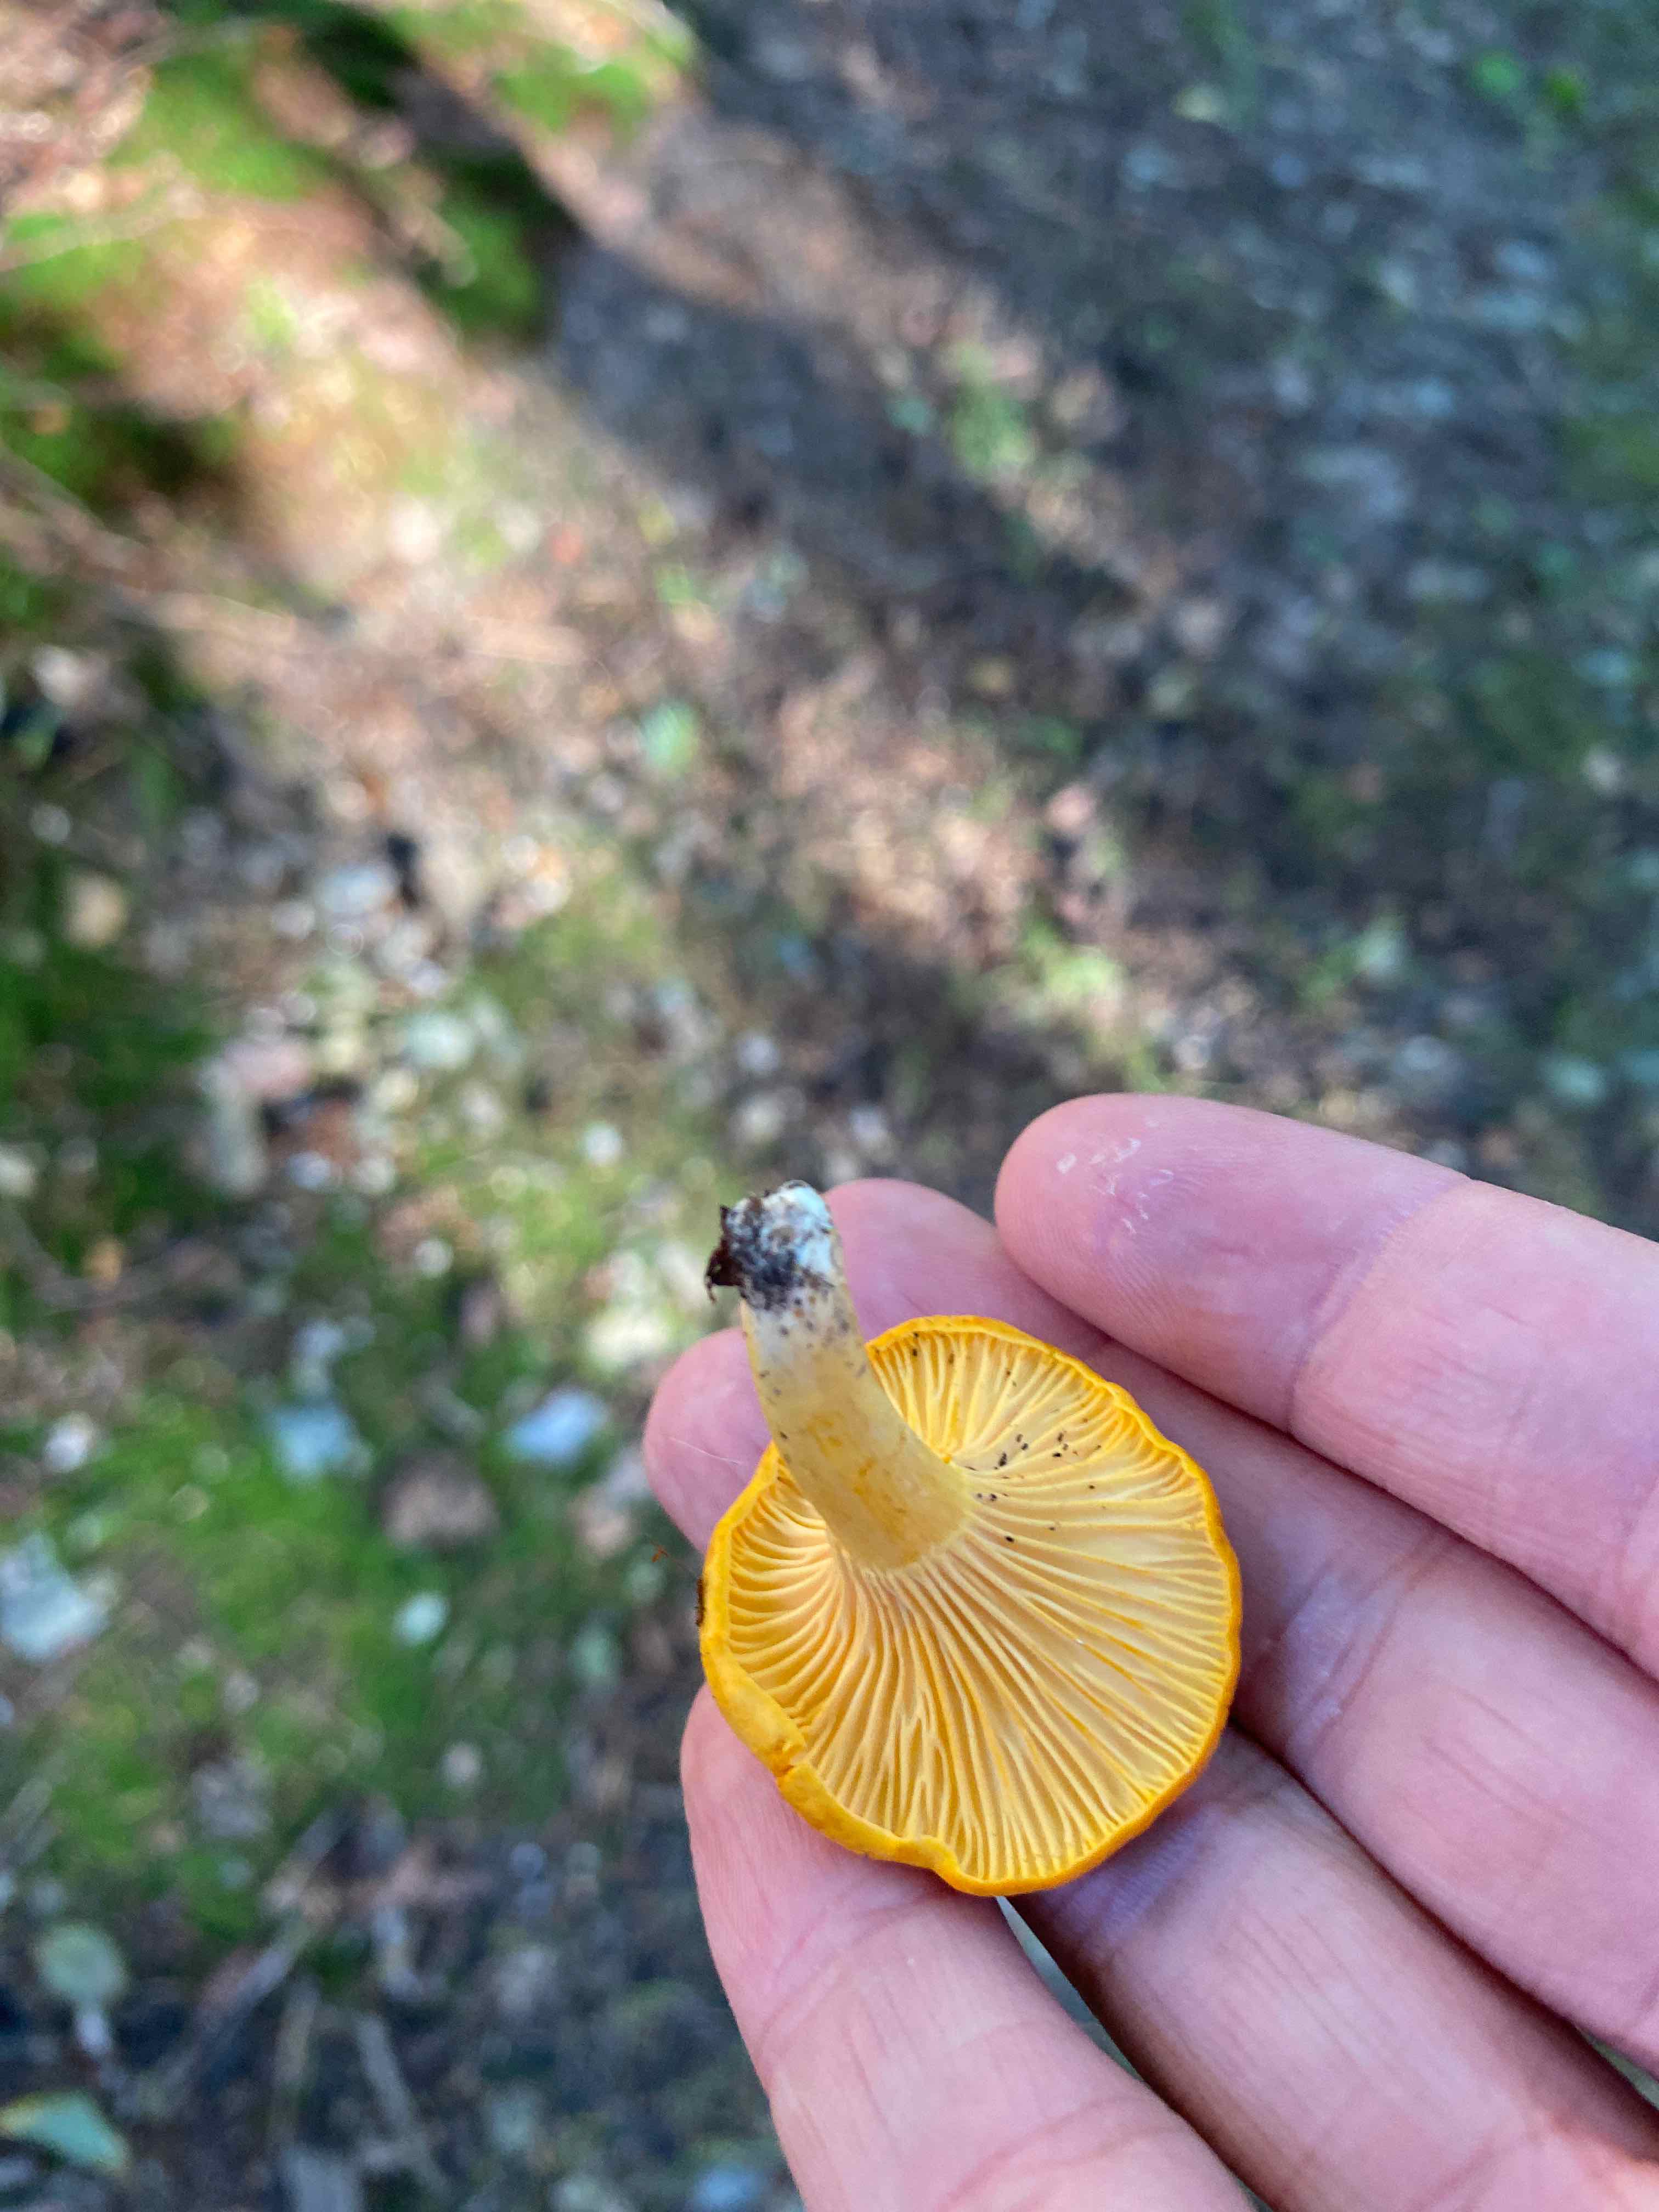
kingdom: Fungi
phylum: Basidiomycota
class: Agaricomycetes
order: Cantharellales
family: Hydnaceae
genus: Cantharellus
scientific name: Cantharellus cibarius
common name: almindelig kantarel
